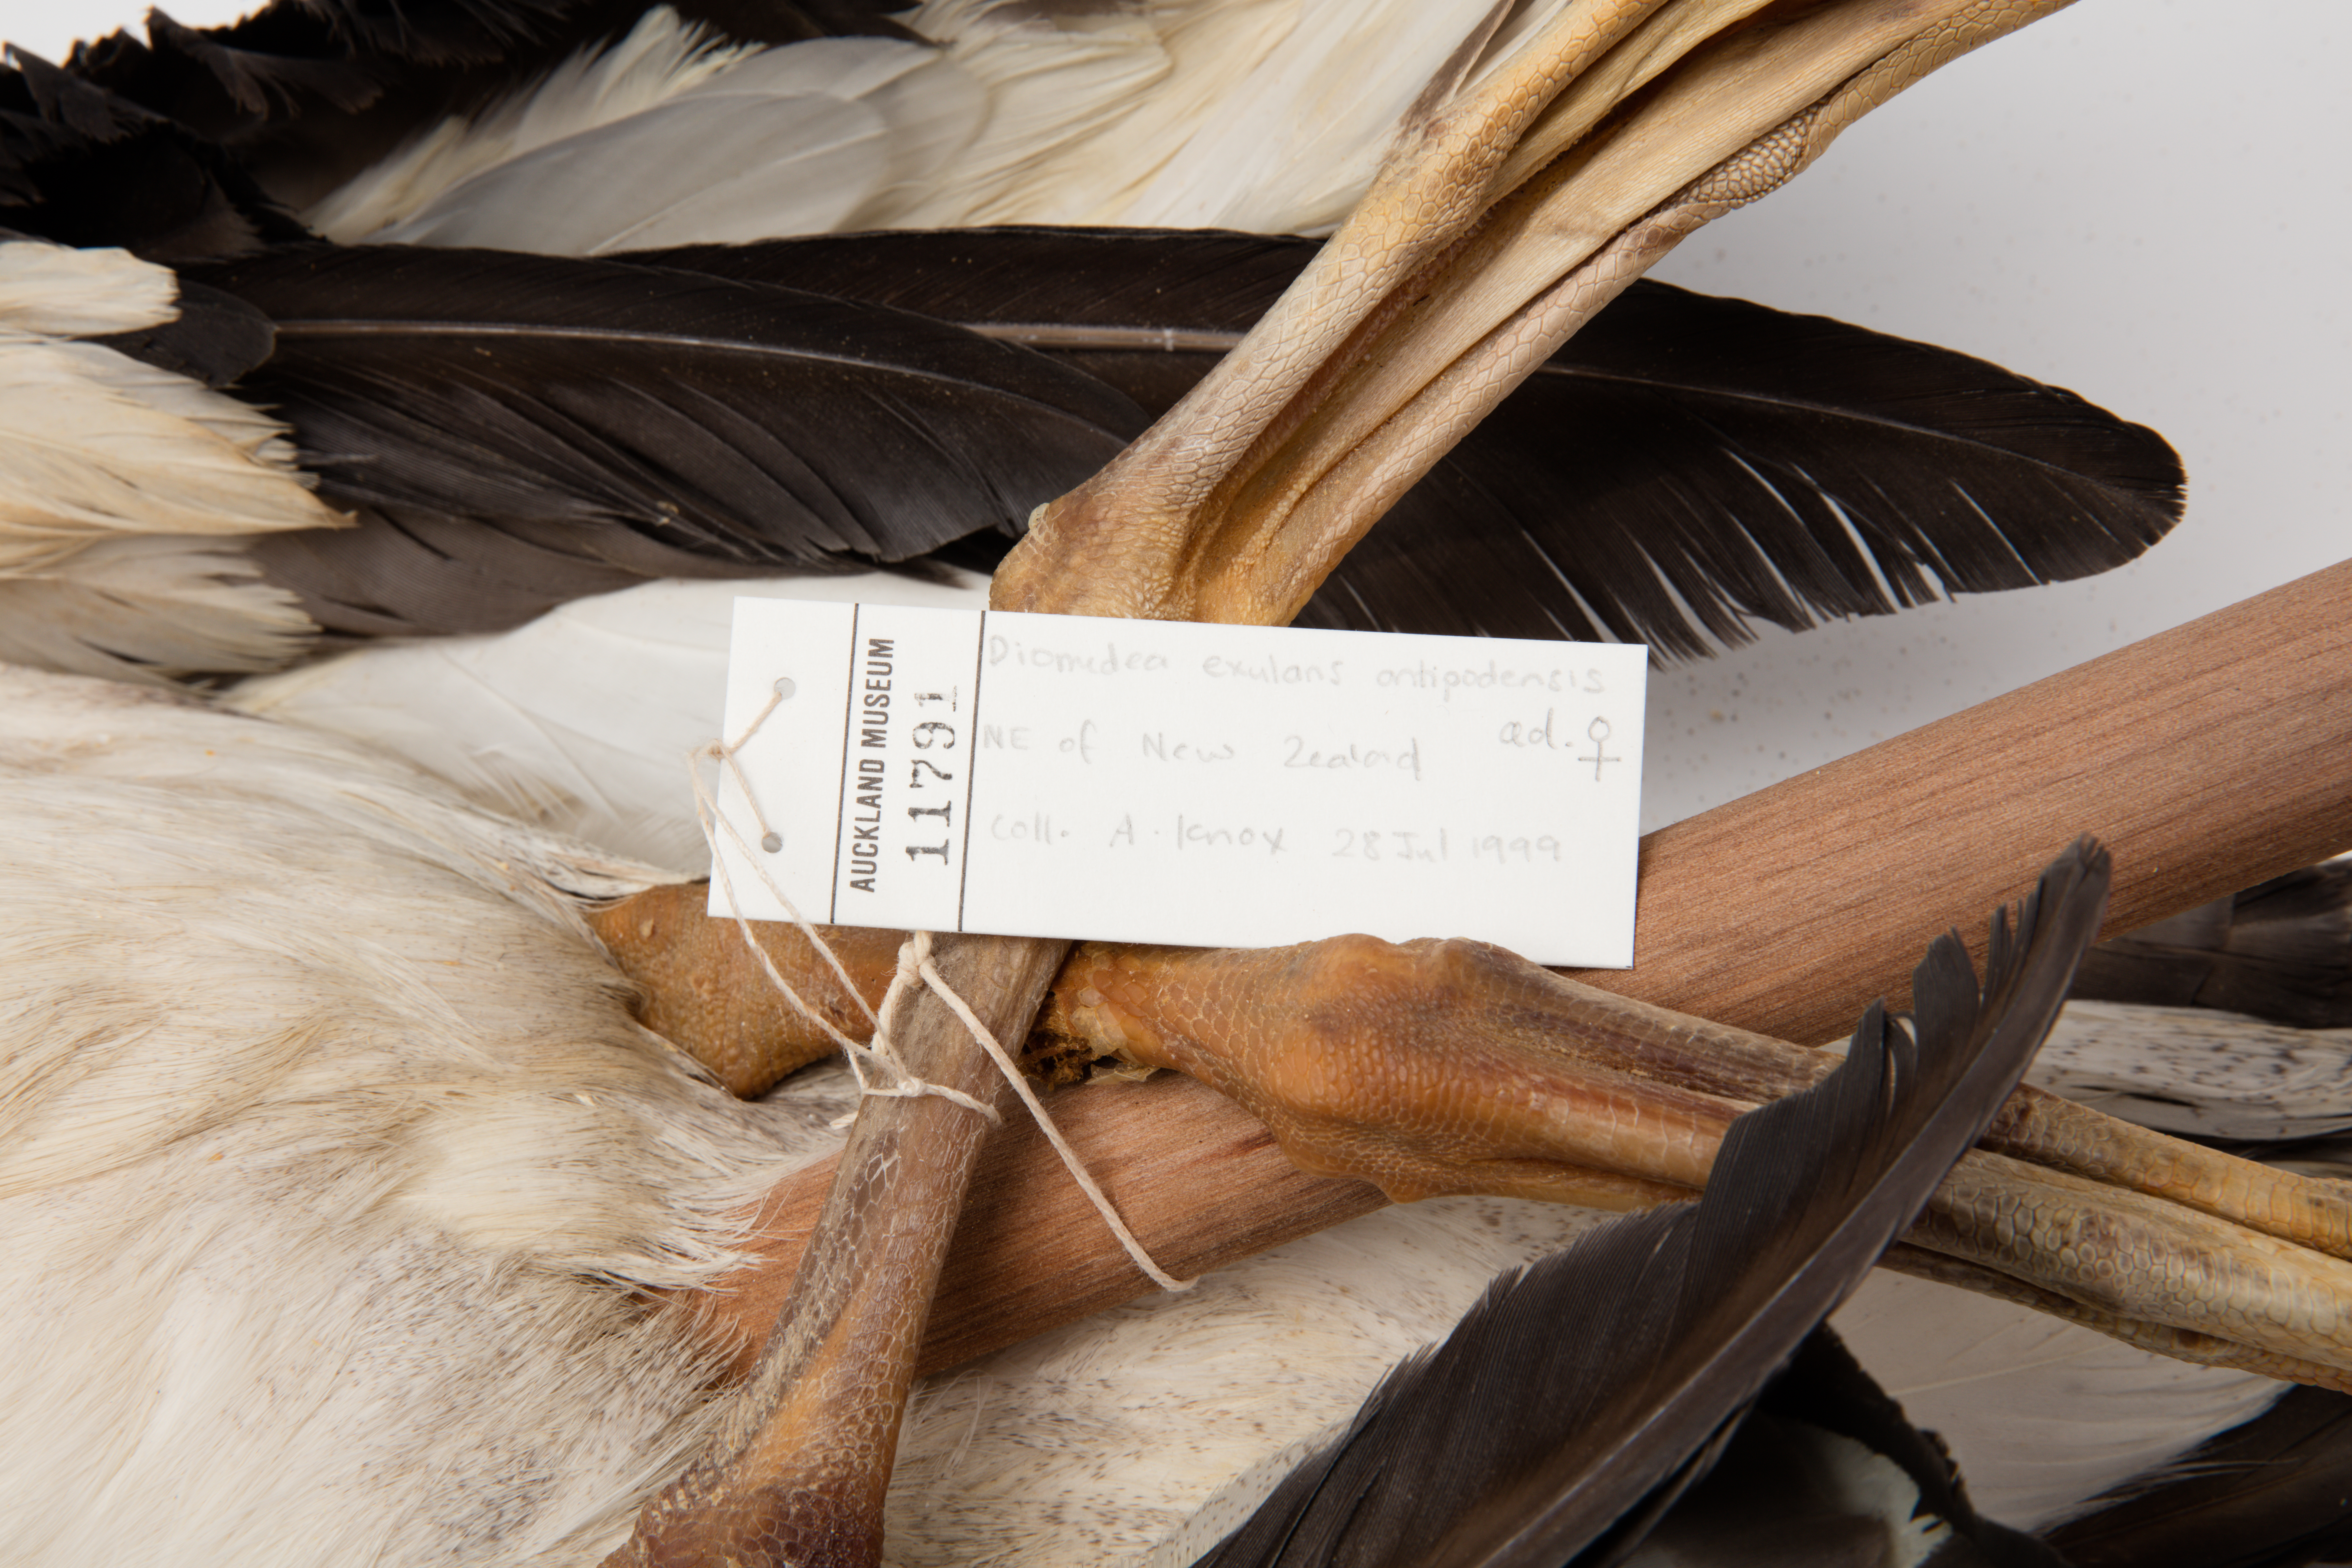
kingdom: Animalia
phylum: Chordata
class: Aves
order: Procellariiformes
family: Diomedeidae
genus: Diomedea
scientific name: Diomedea antipodensis
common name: Antipodean albatross
